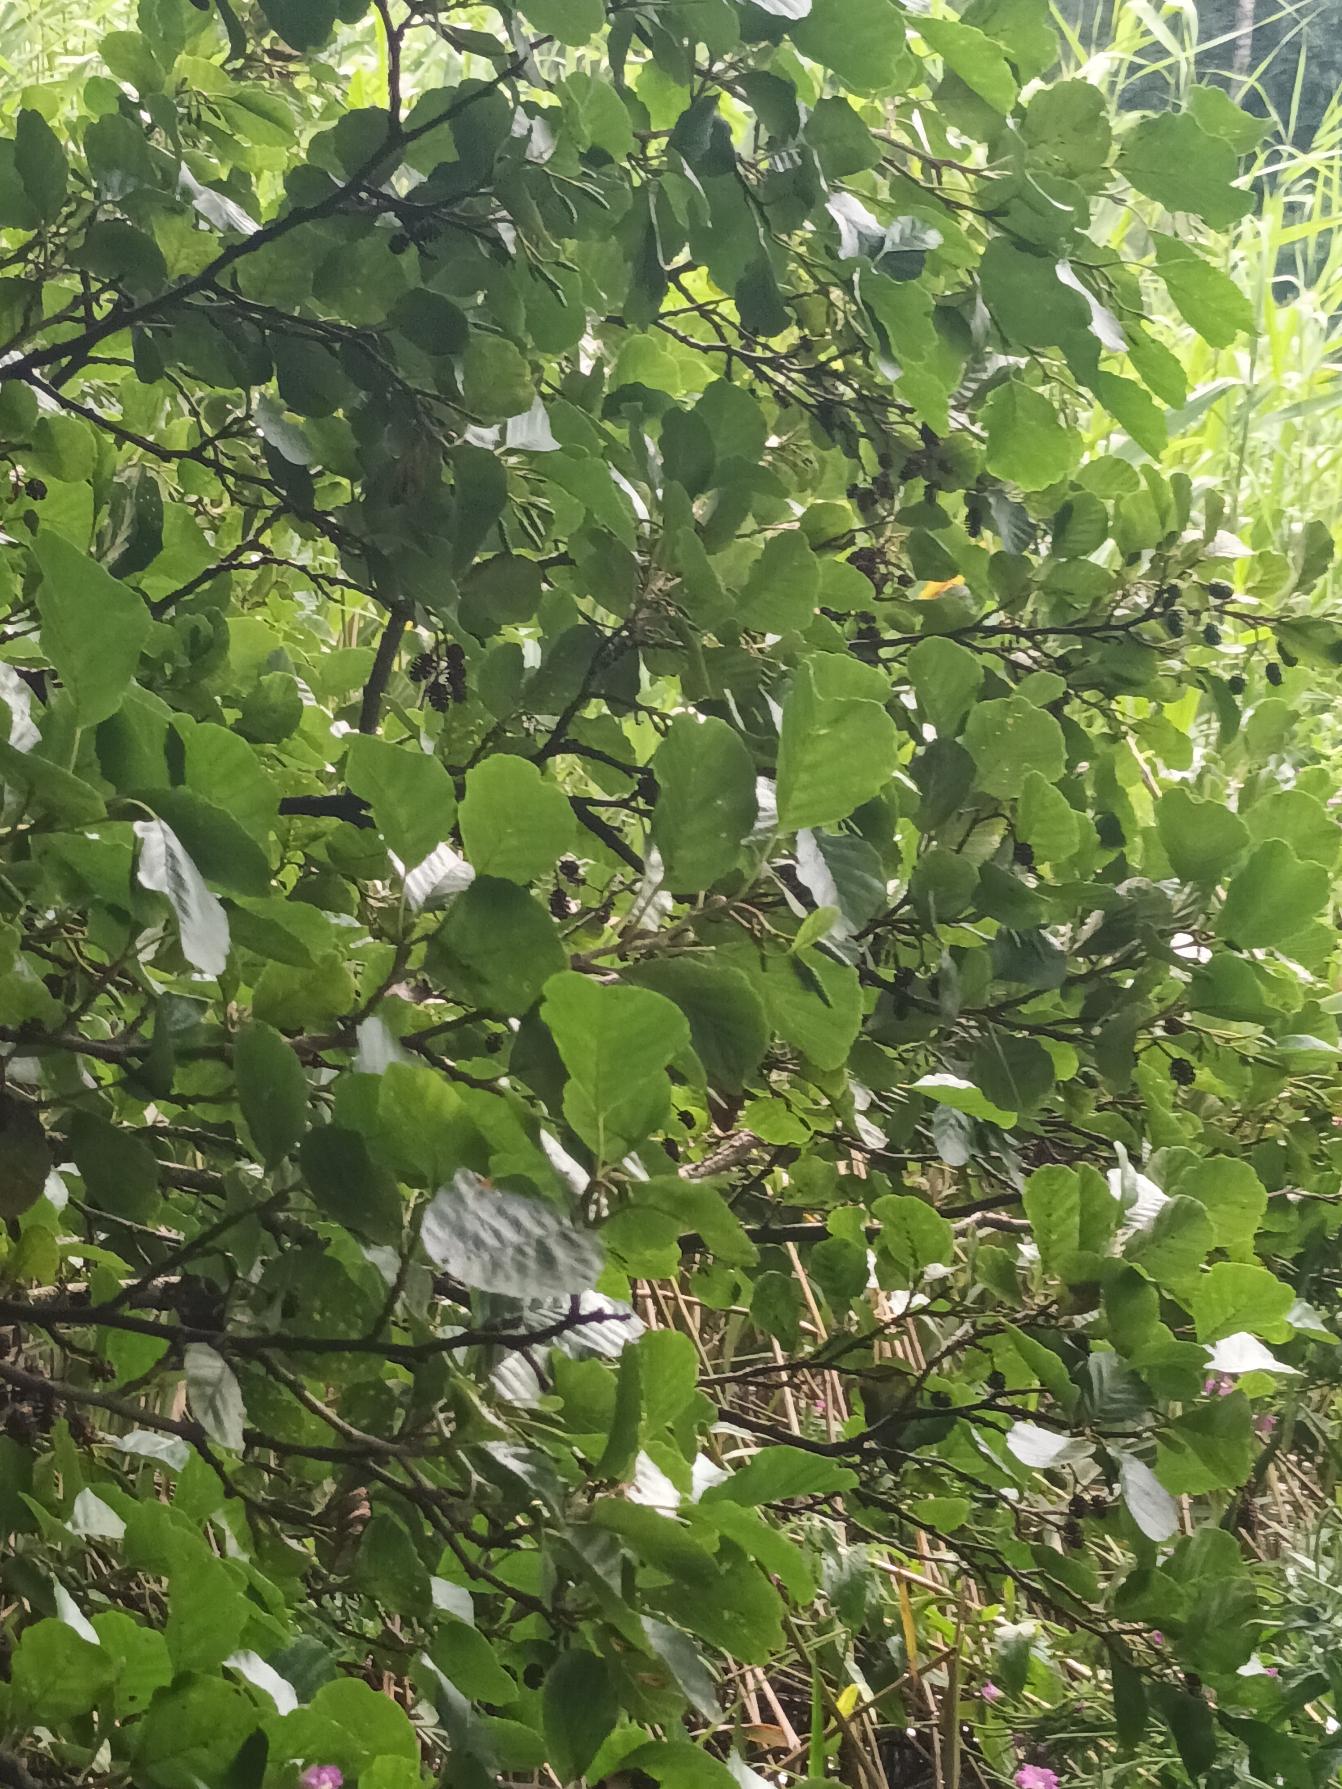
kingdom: Plantae
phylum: Tracheophyta
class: Magnoliopsida
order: Fagales
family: Betulaceae
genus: Alnus
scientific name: Alnus glutinosa
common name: Rød-el
